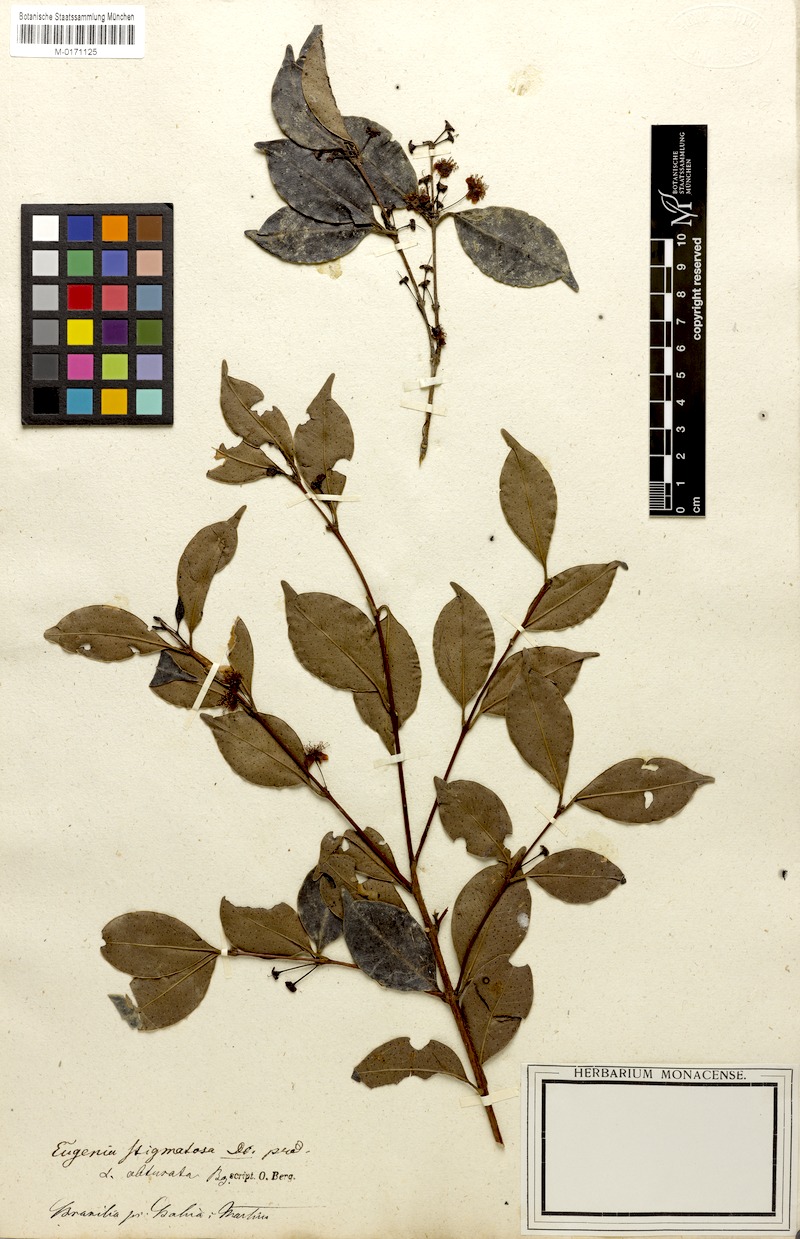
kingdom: Plantae
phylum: Tracheophyta
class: Magnoliopsida
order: Myrtales
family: Myrtaceae
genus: Eugenia
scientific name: Eugenia stigmatosa
